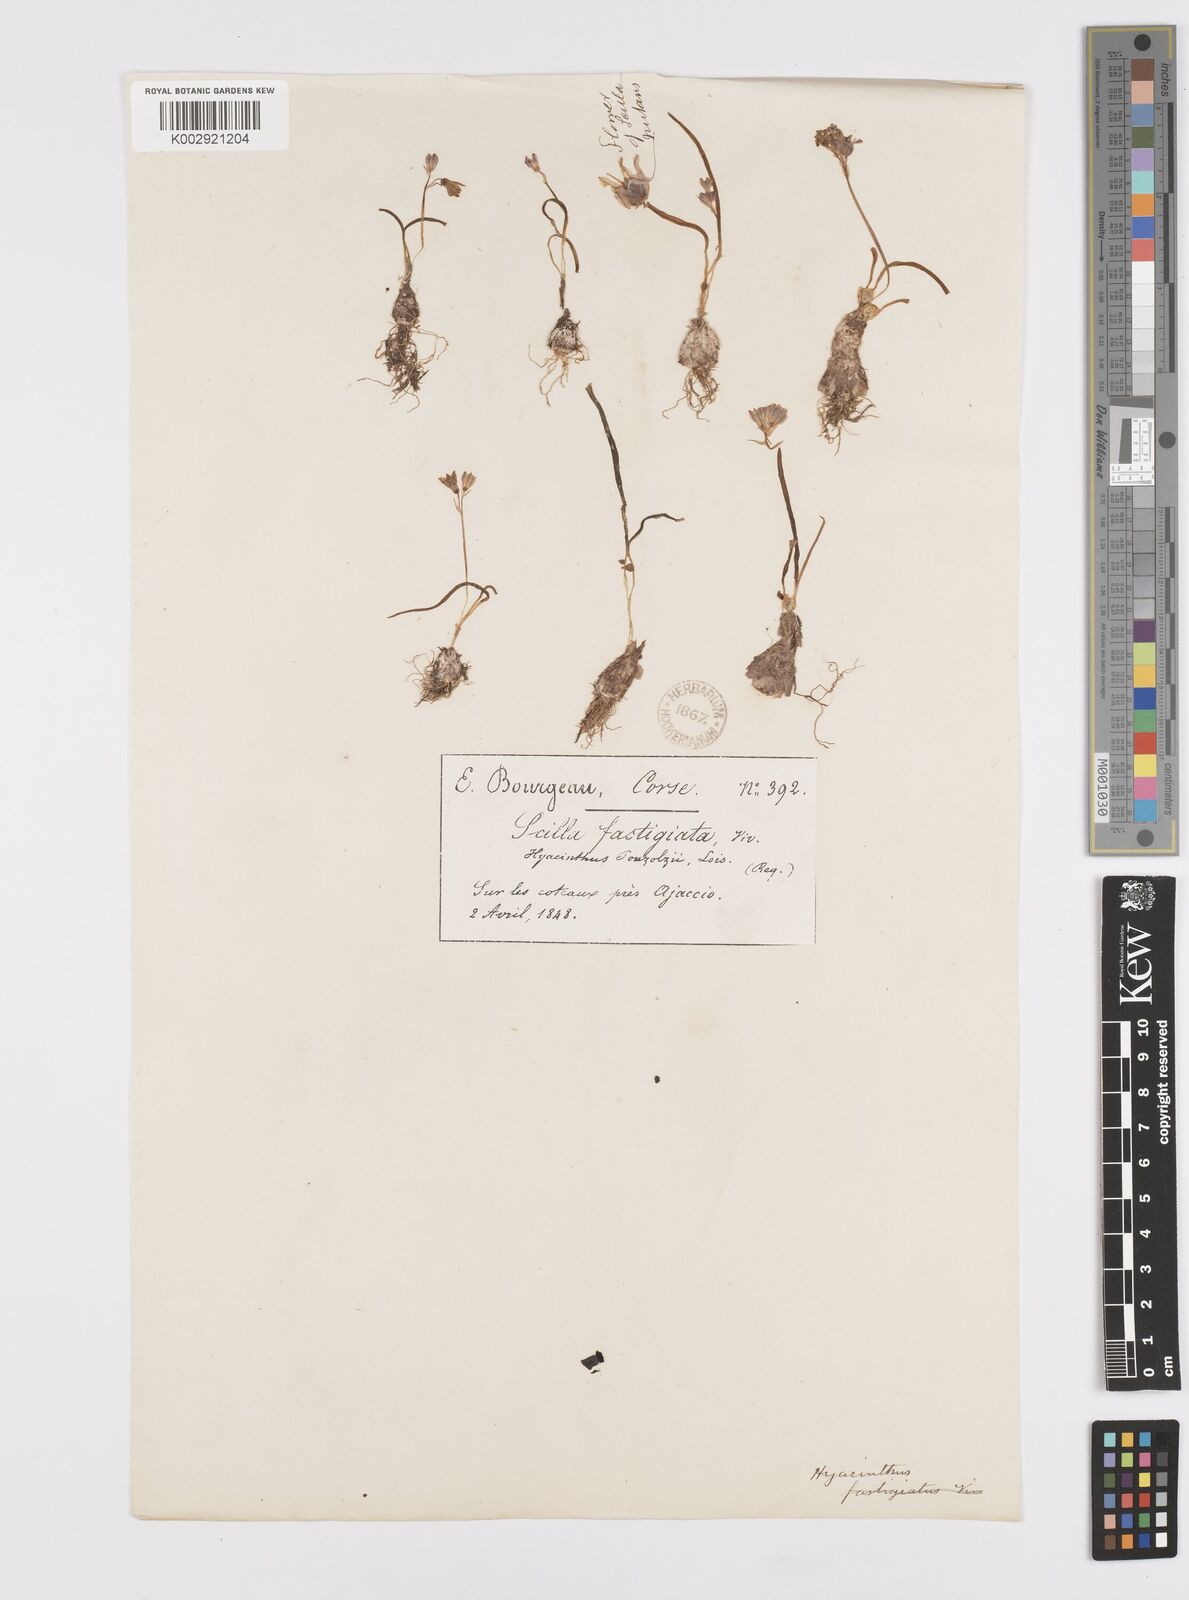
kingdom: Plantae
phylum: Tracheophyta
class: Liliopsida
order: Asparagales
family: Asparagaceae
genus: Brimeura
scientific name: Brimeura fastigiata
